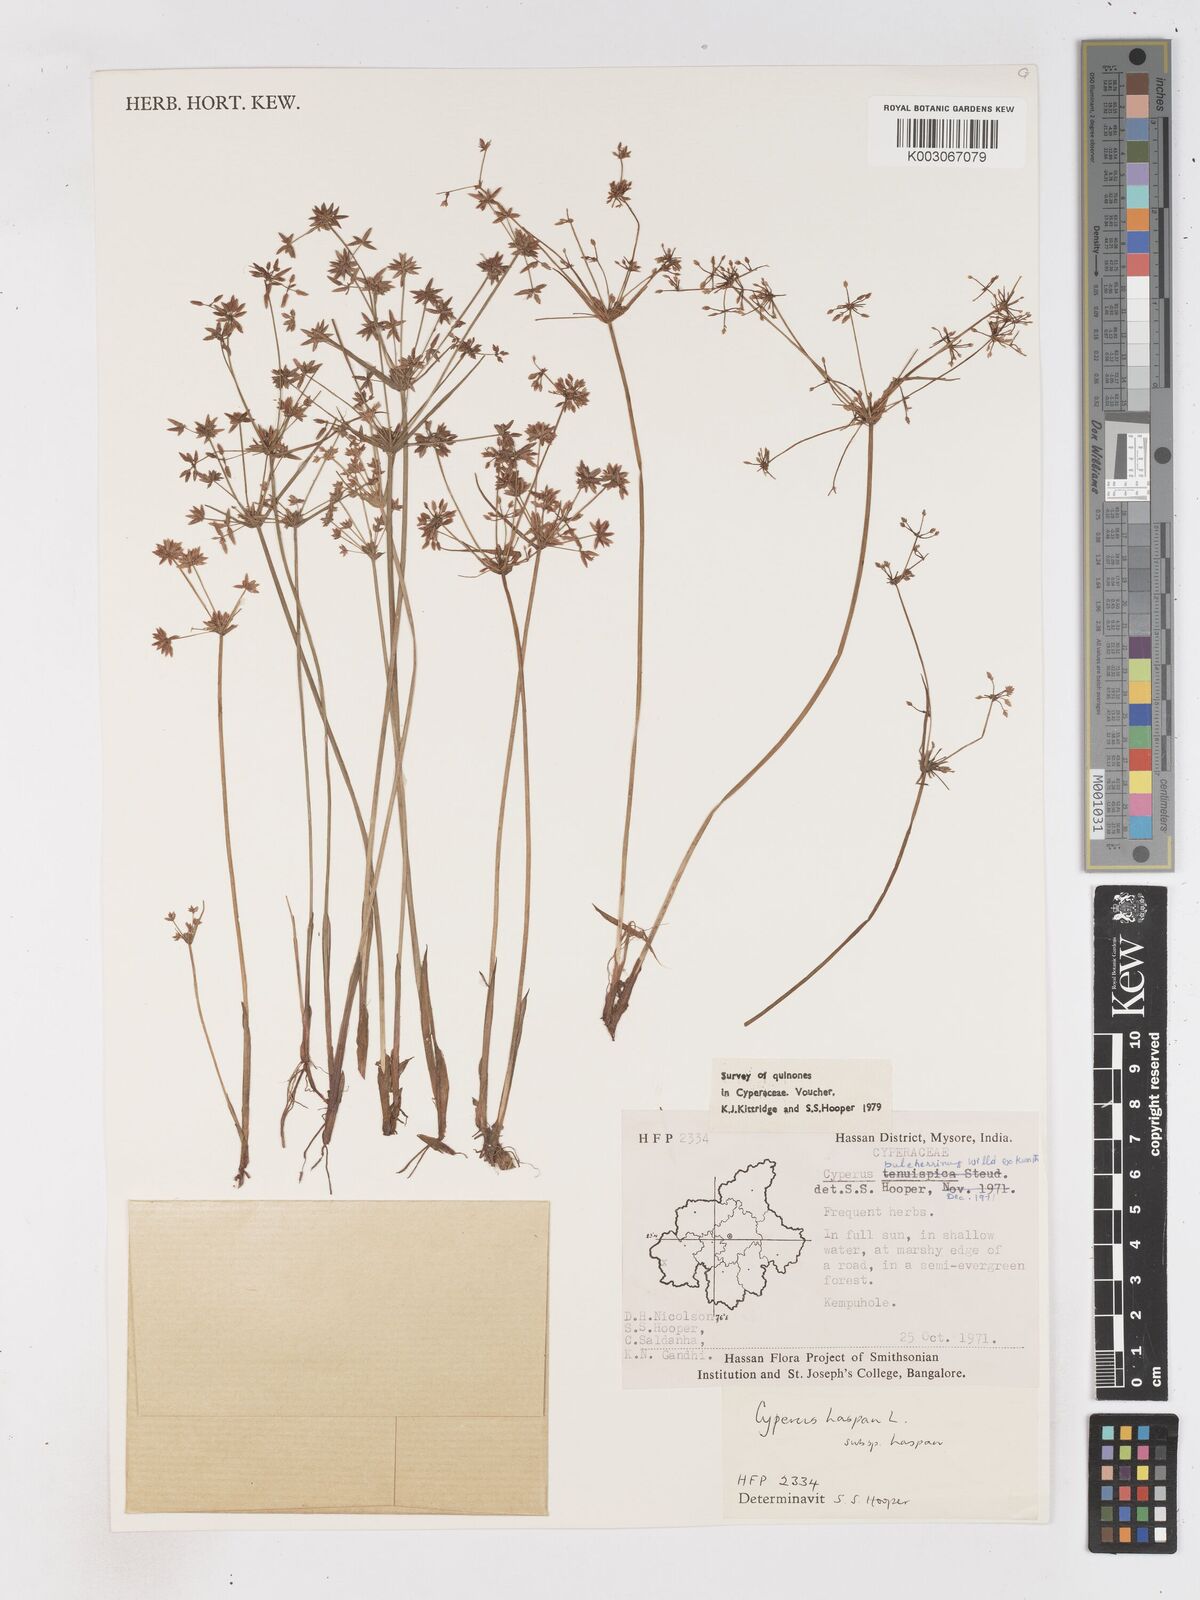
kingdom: Plantae
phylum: Tracheophyta
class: Liliopsida
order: Poales
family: Cyperaceae
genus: Cyperus
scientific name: Cyperus haspan
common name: Haspan flatsedge
